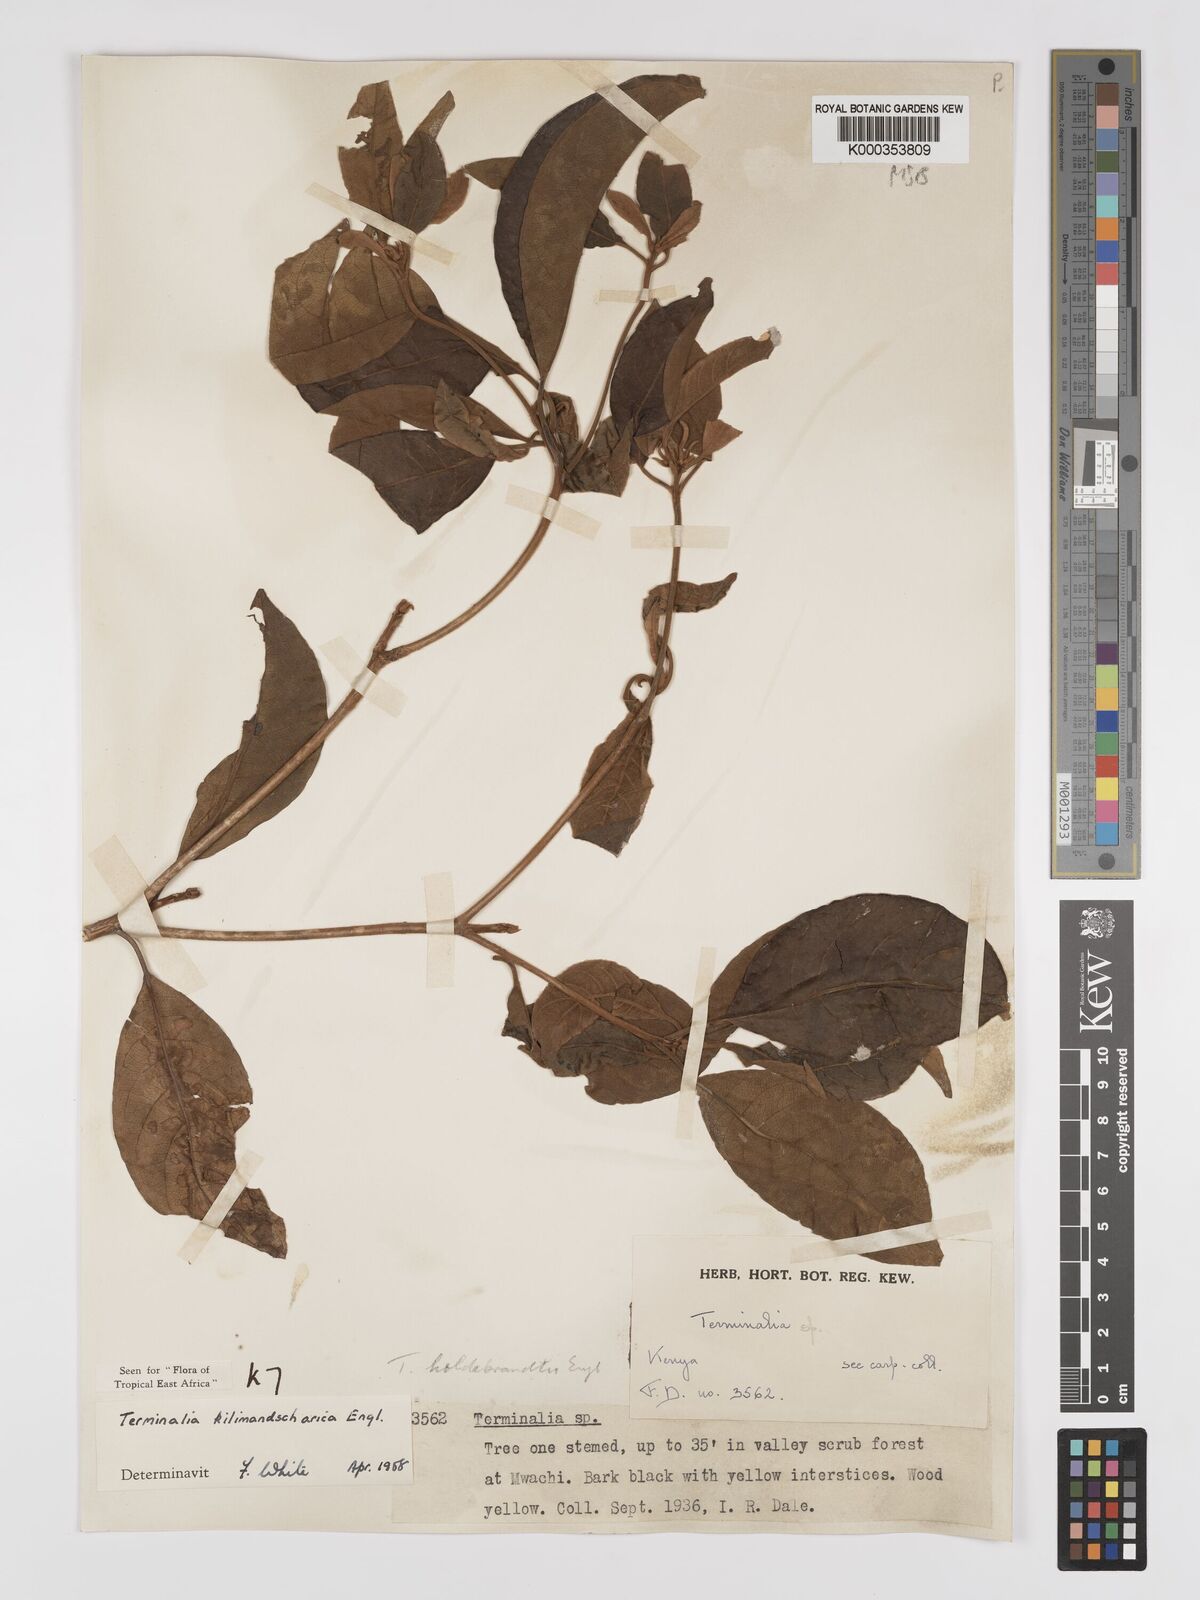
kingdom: Plantae
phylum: Tracheophyta
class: Magnoliopsida
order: Myrtales
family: Combretaceae
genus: Terminalia
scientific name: Terminalia kilimandscharica
